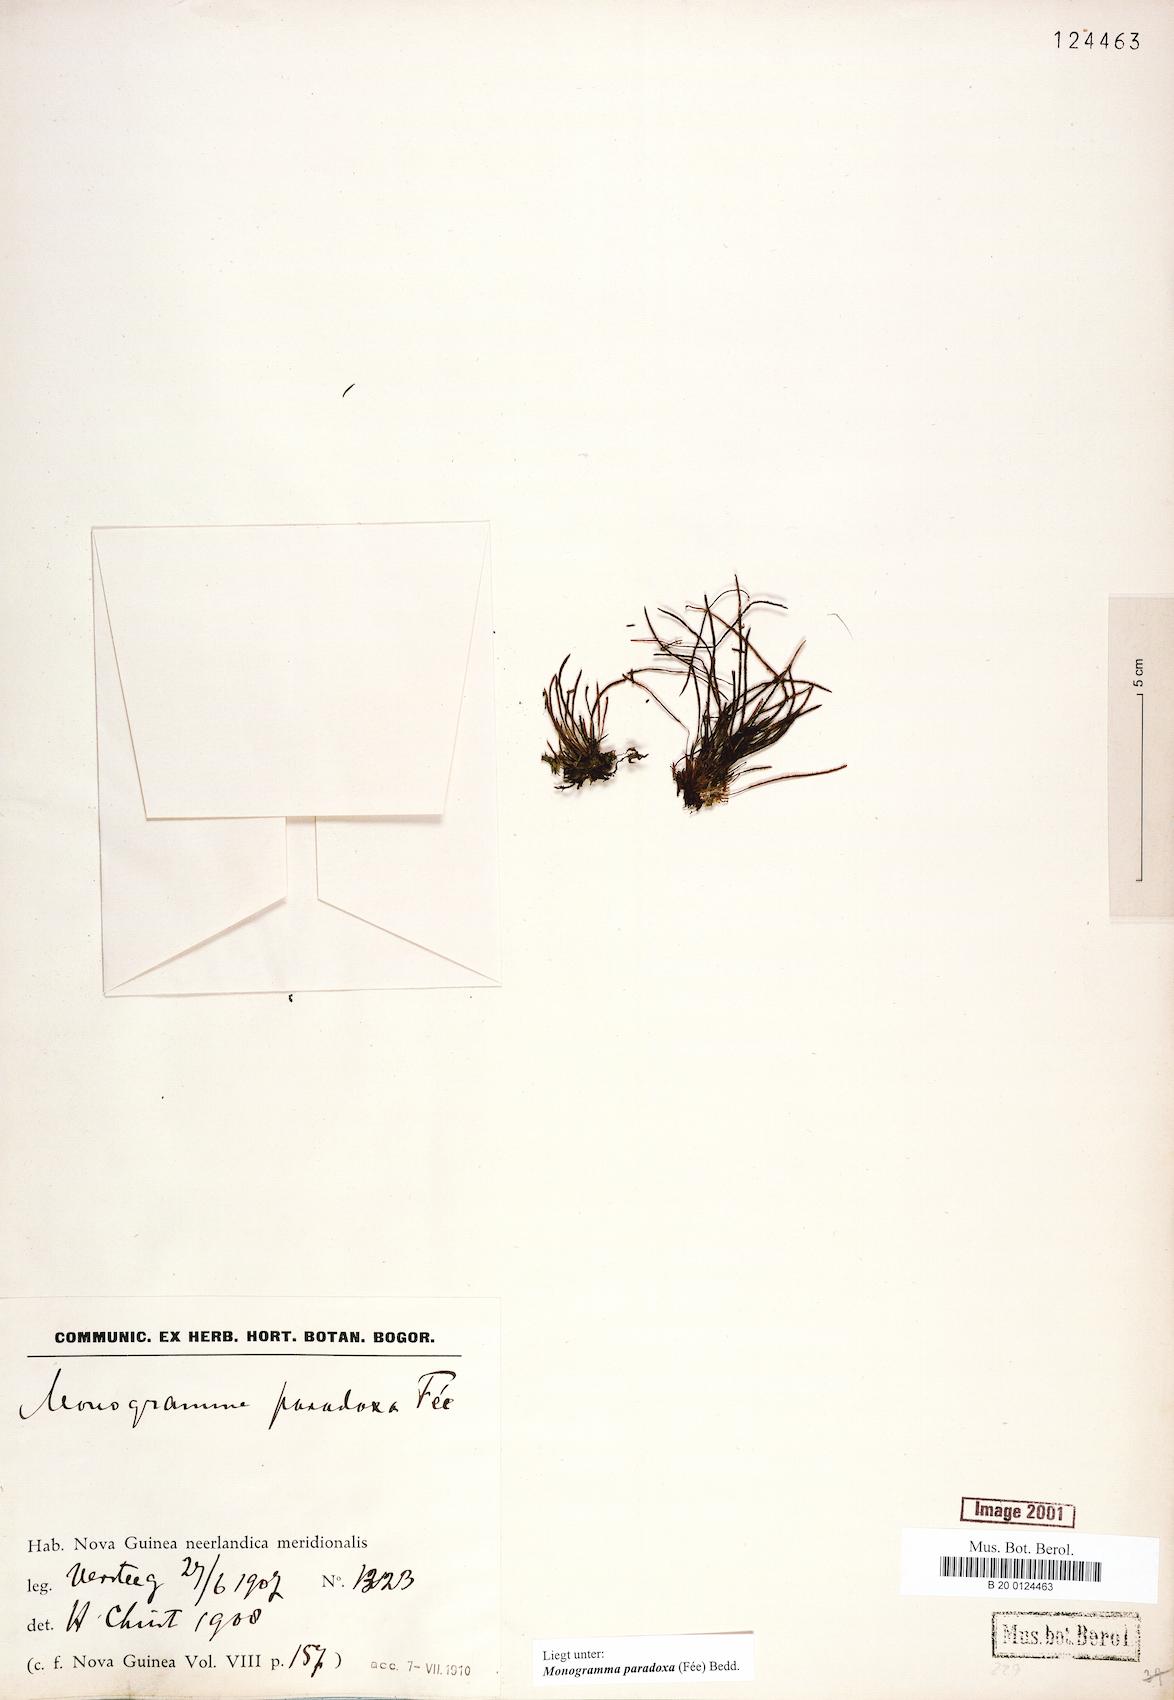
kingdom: Plantae
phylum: Tracheophyta
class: Polypodiopsida
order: Polypodiales
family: Pteridaceae
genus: Vaginularia
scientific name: Vaginularia paradoxa
